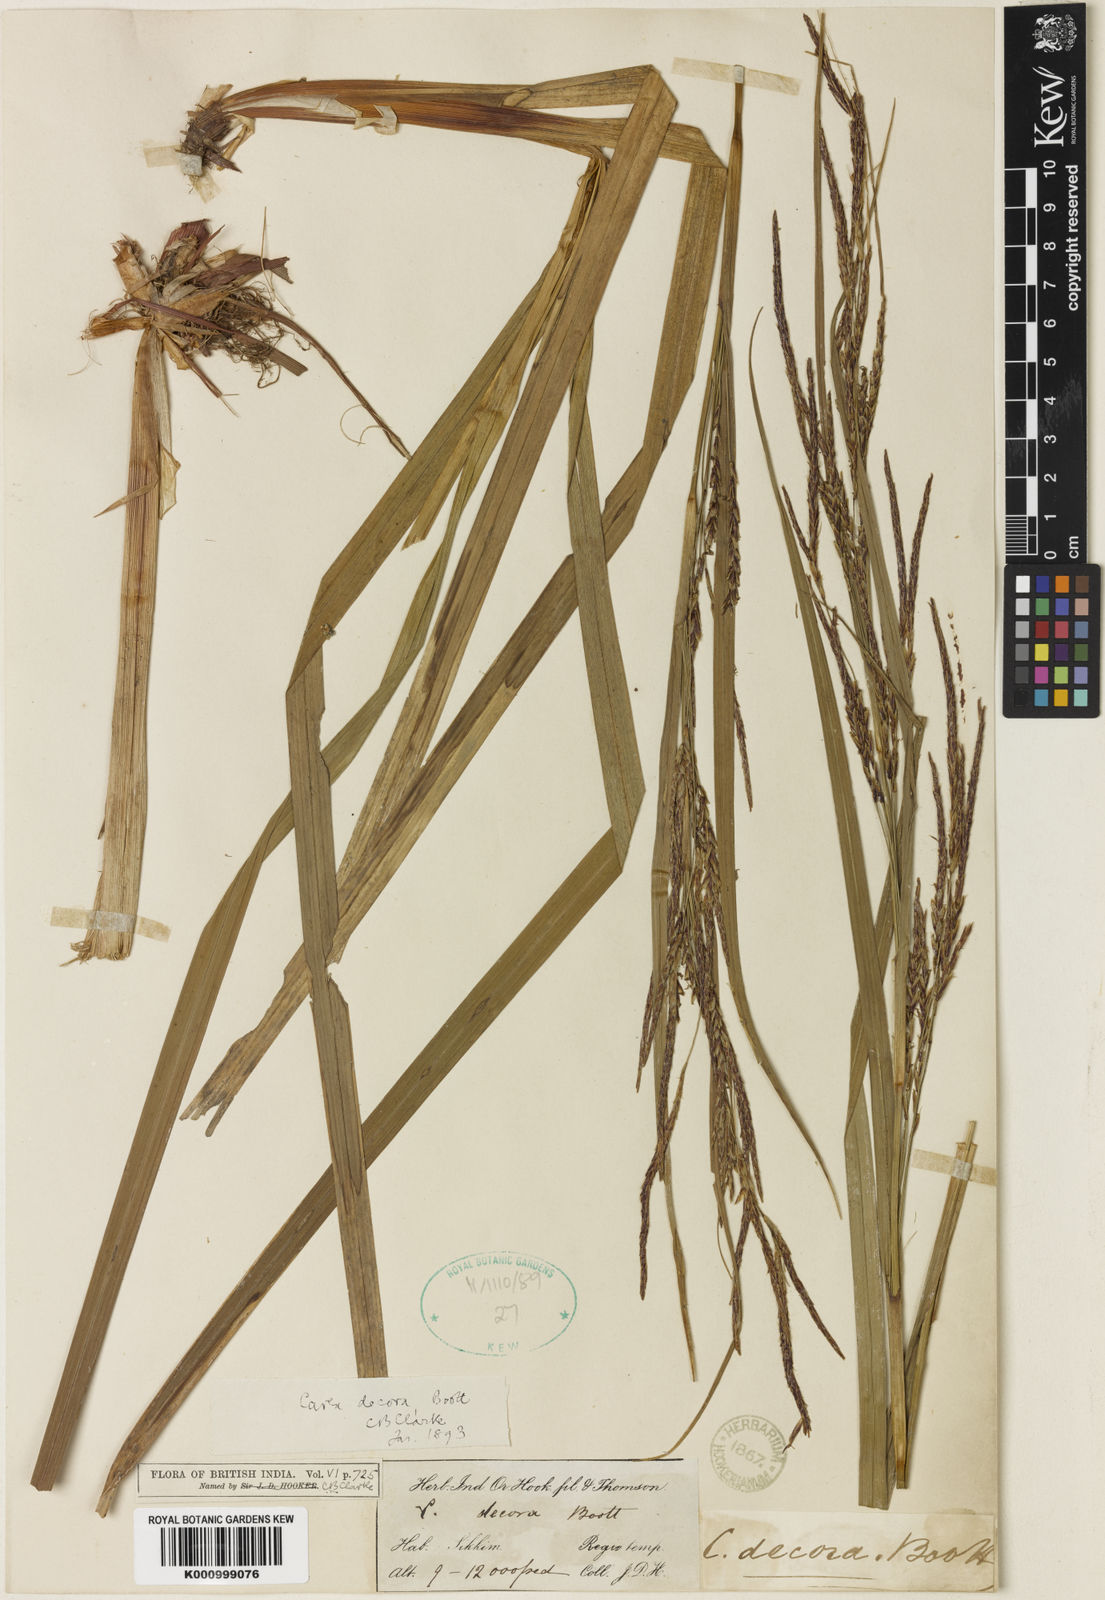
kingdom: Plantae
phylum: Tracheophyta
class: Liliopsida
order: Poales
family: Cyperaceae
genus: Carex
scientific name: Carex decora
